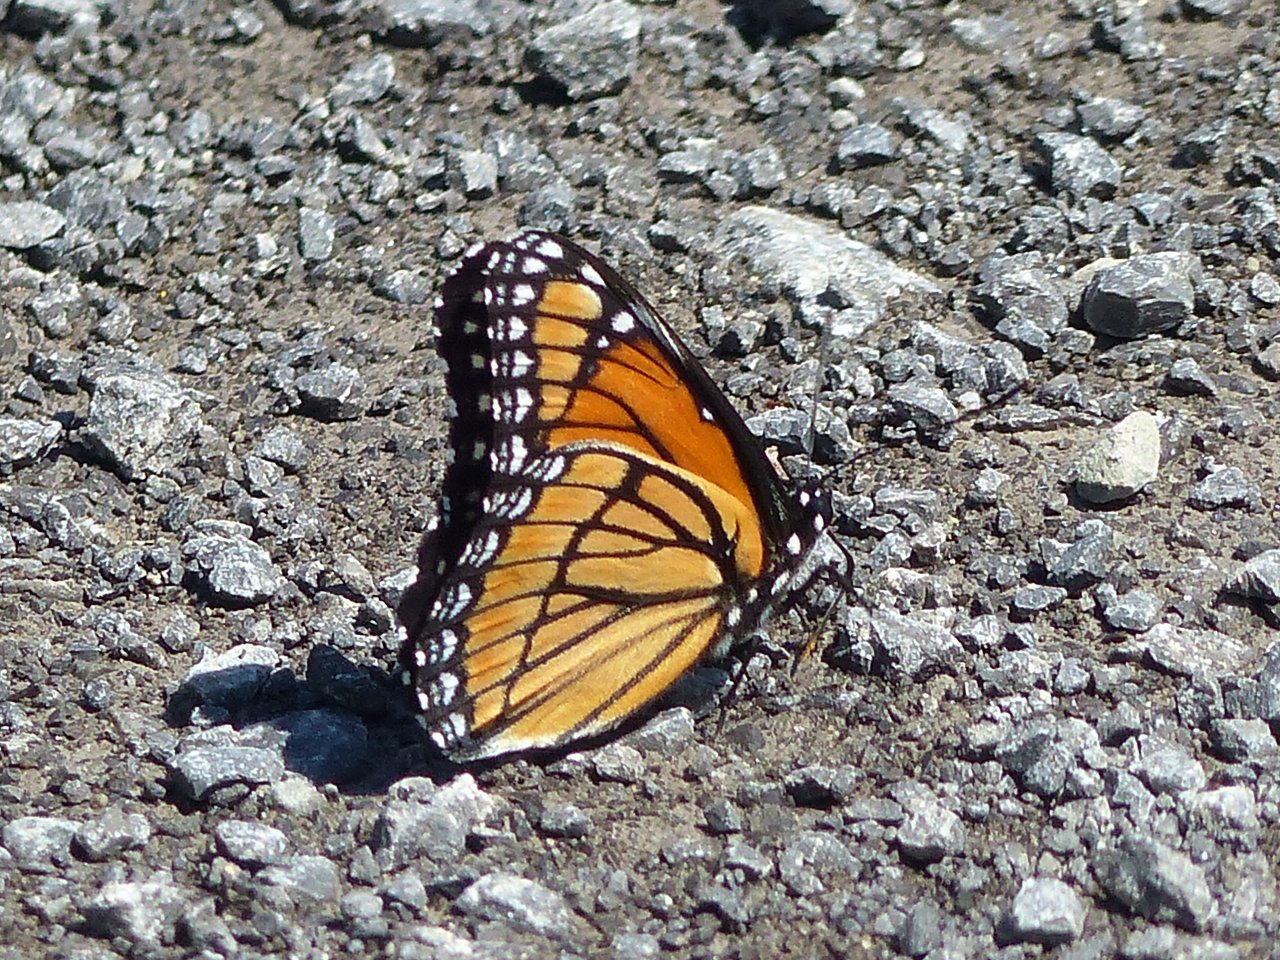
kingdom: Animalia
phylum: Arthropoda
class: Insecta
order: Lepidoptera
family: Nymphalidae
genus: Limenitis
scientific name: Limenitis archippus
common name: Viceroy
